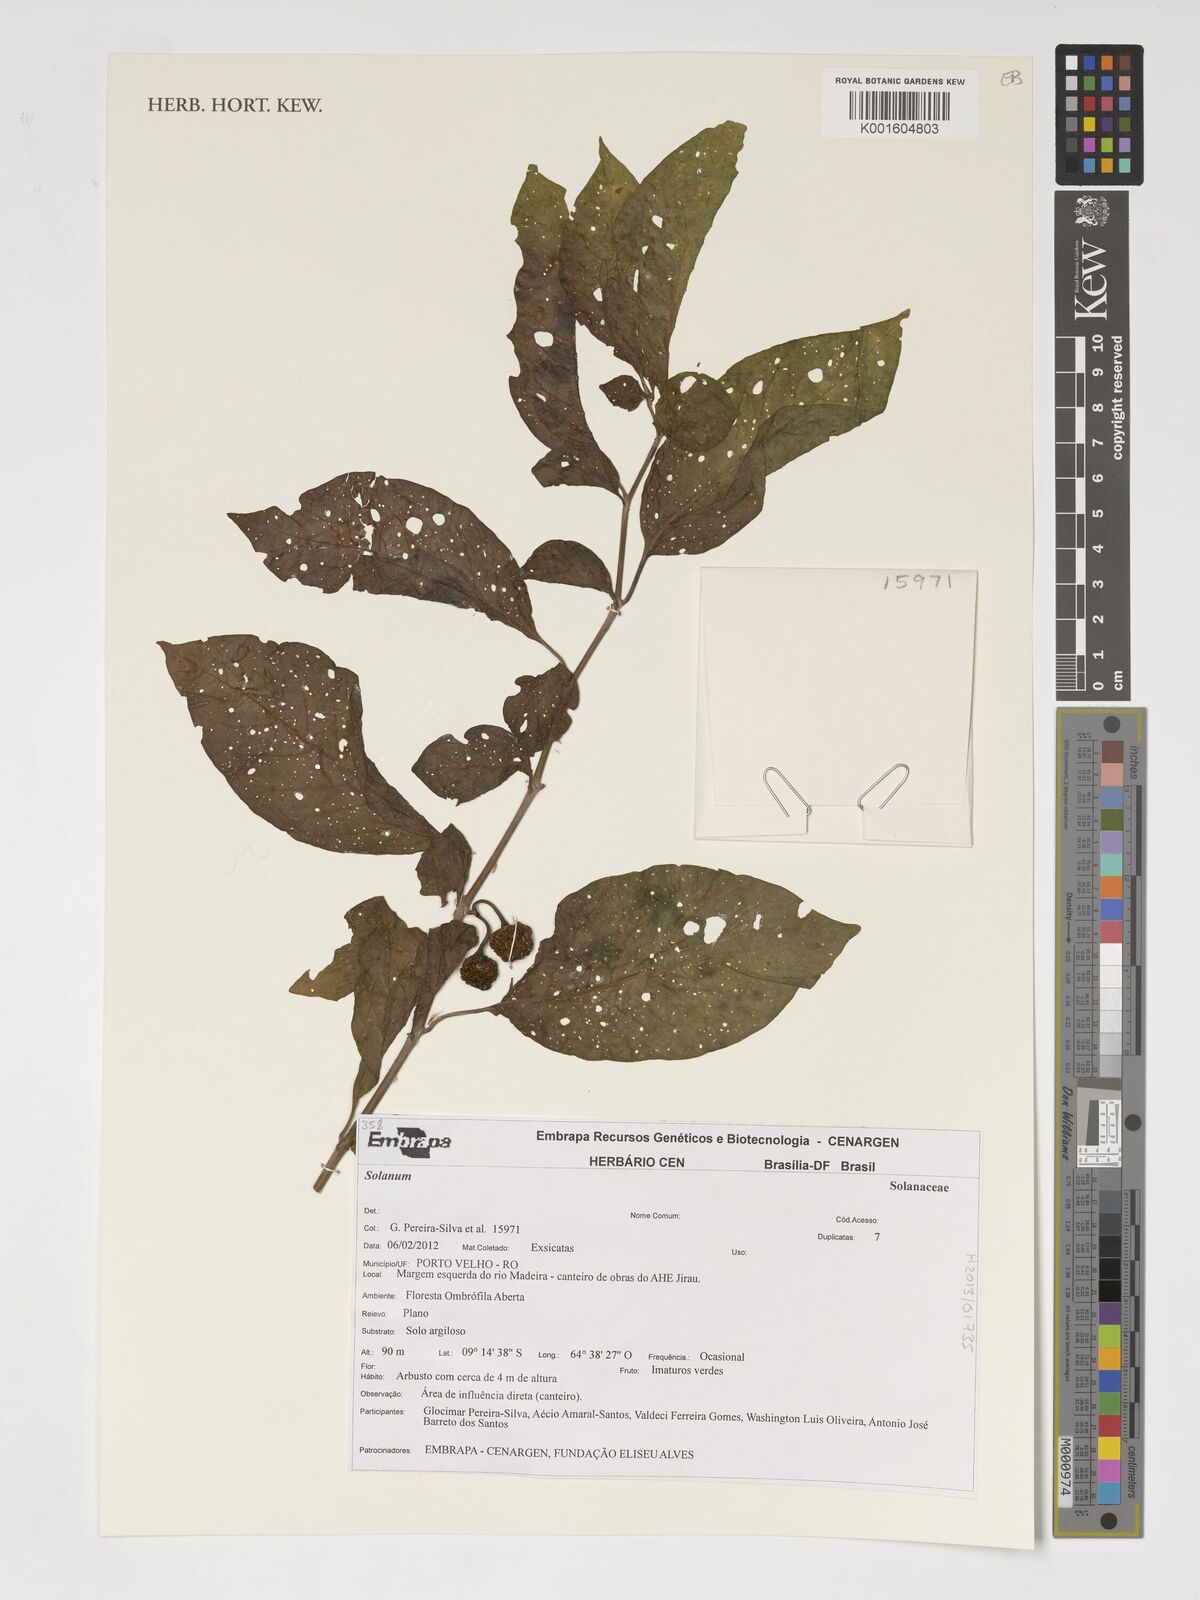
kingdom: Plantae
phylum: Tracheophyta
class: Magnoliopsida
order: Solanales
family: Solanaceae
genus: Solanum
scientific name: Solanum
